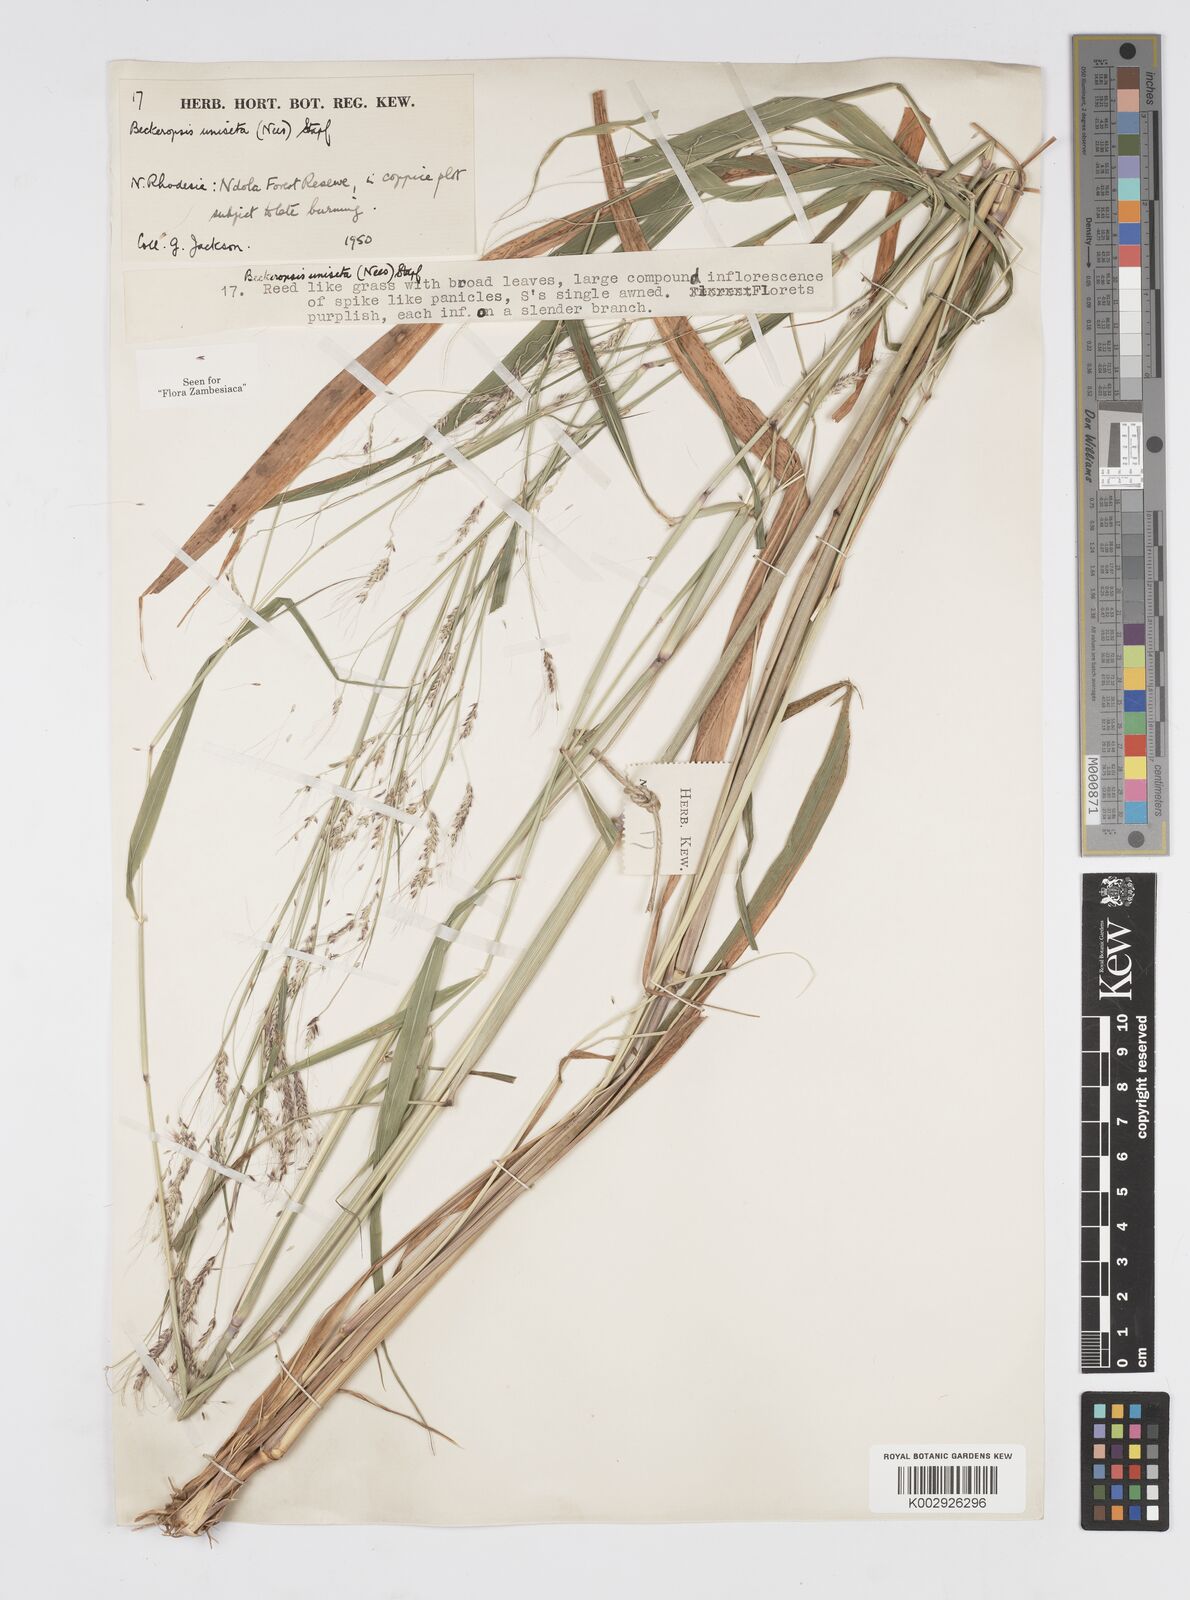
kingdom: Plantae
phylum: Tracheophyta
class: Liliopsida
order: Poales
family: Poaceae
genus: Cenchrus
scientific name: Cenchrus unisetus
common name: Natal grass
